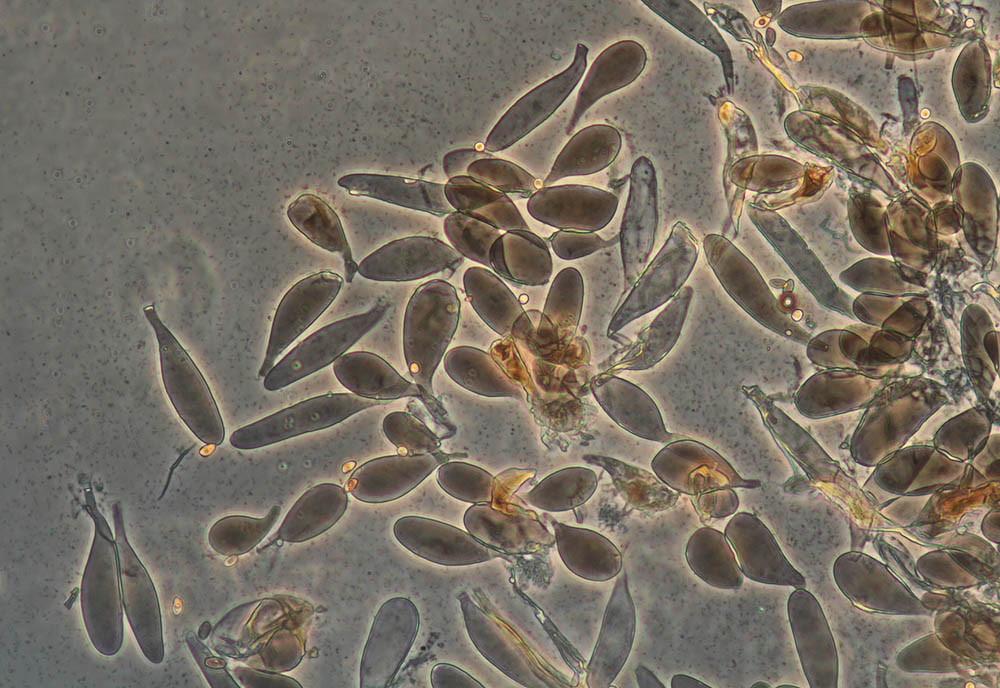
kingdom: Fungi
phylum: Basidiomycota
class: Agaricomycetes
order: Agaricales
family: Pluteaceae
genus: Pluteus
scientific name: Pluteus podospileus
